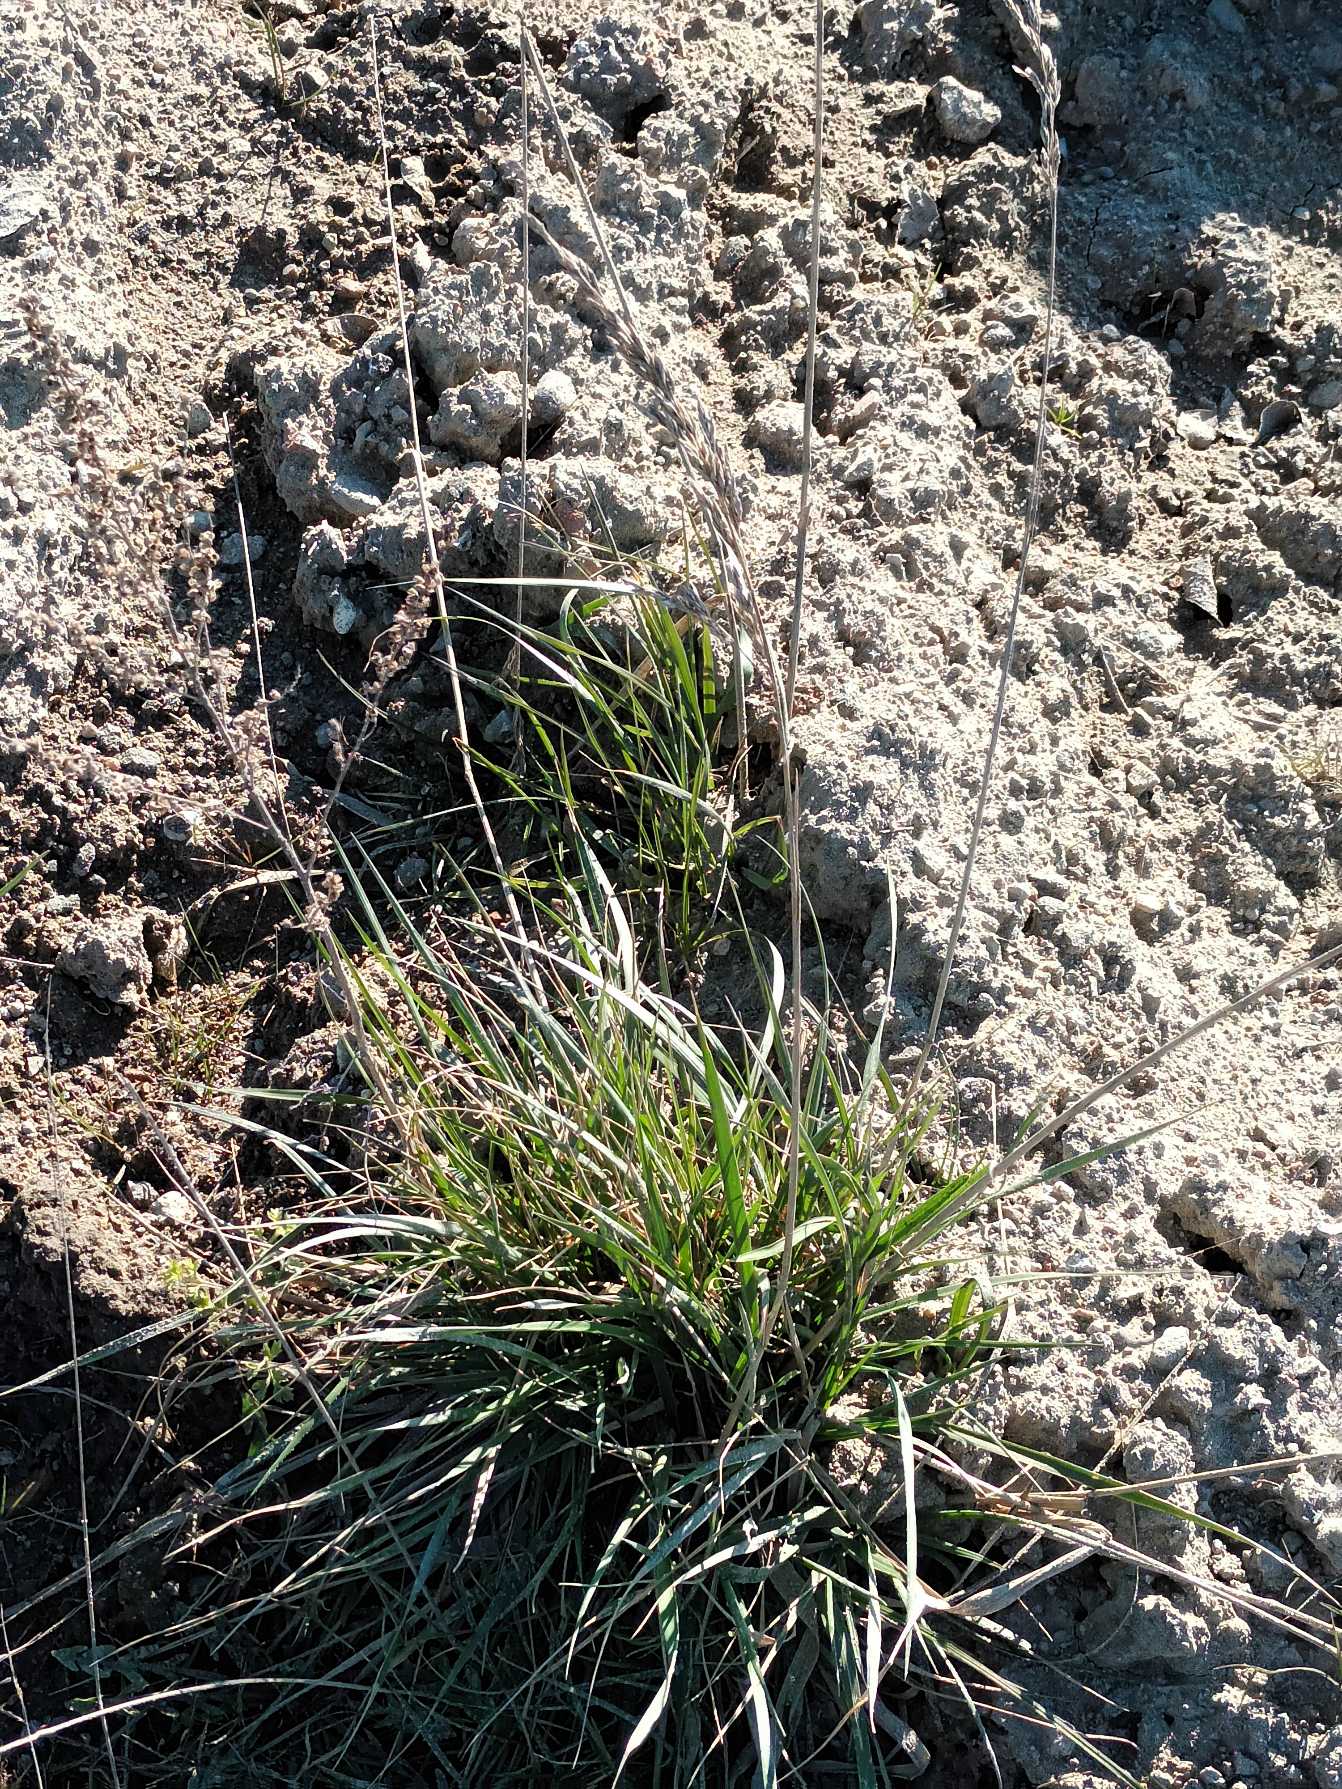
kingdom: Plantae
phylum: Tracheophyta
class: Liliopsida
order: Poales
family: Poaceae
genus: Lolium
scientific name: Lolium arundinaceum
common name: Strand-svingel
